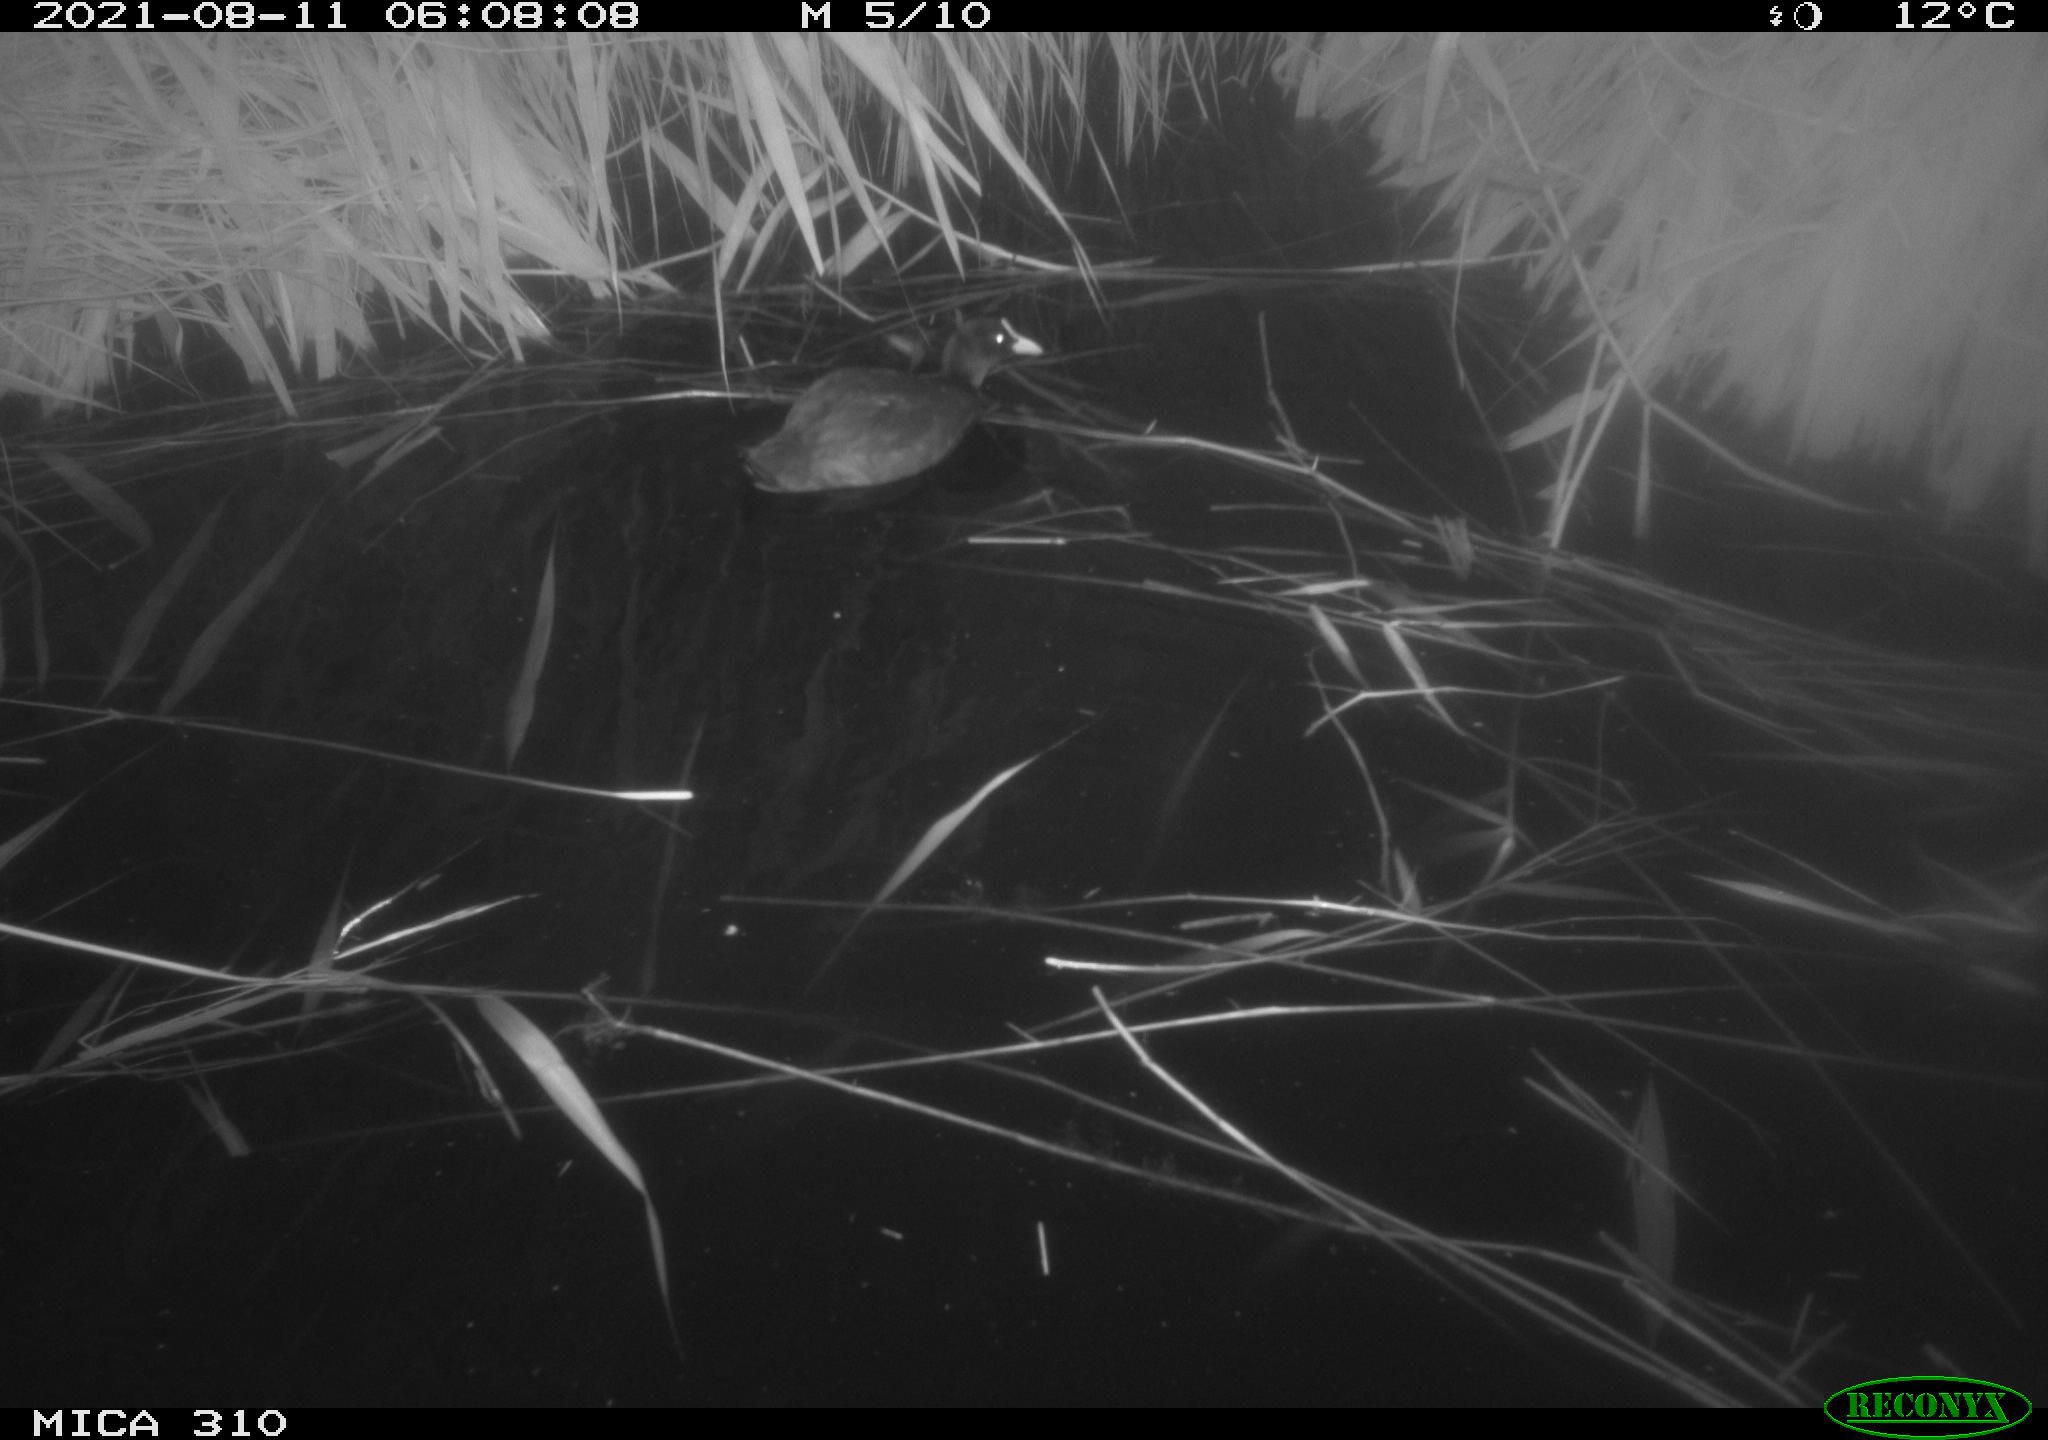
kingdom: Animalia
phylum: Chordata
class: Aves
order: Gruiformes
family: Rallidae
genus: Fulica
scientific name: Fulica atra
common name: Eurasian coot
